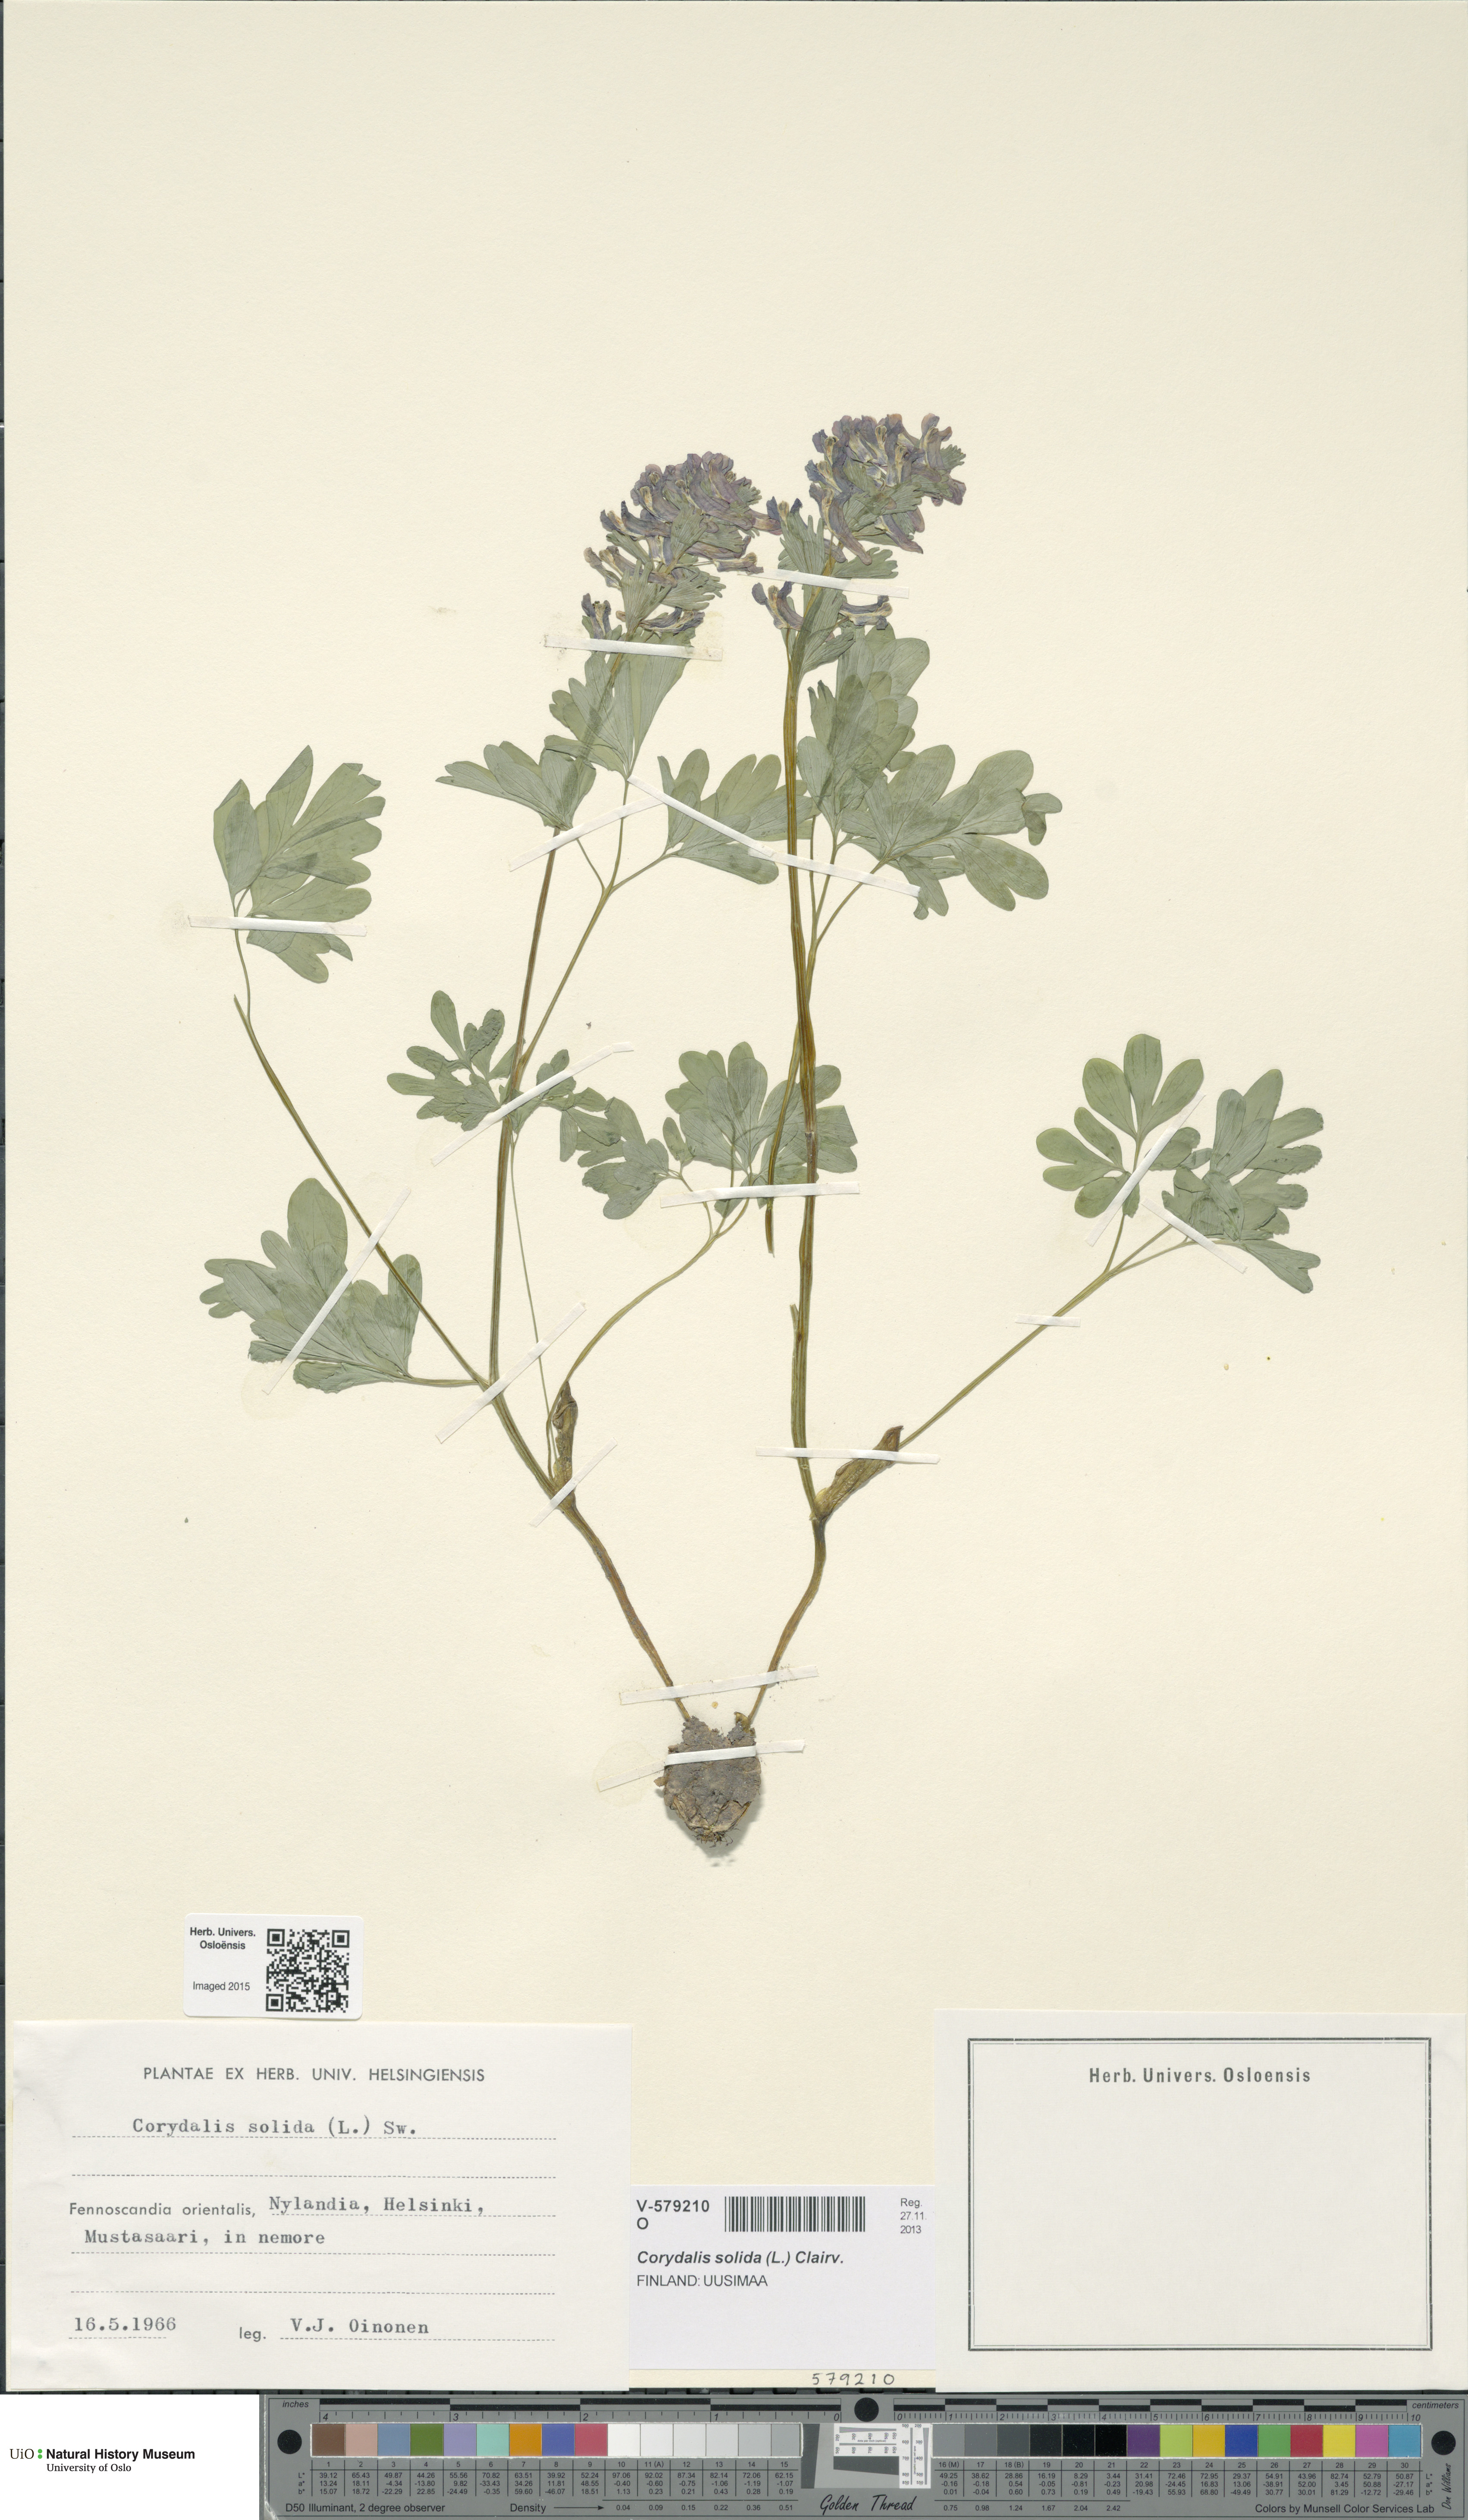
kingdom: Plantae
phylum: Tracheophyta
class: Magnoliopsida
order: Ranunculales
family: Papaveraceae
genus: Corydalis
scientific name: Corydalis solida
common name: Bird-in-a-bush
